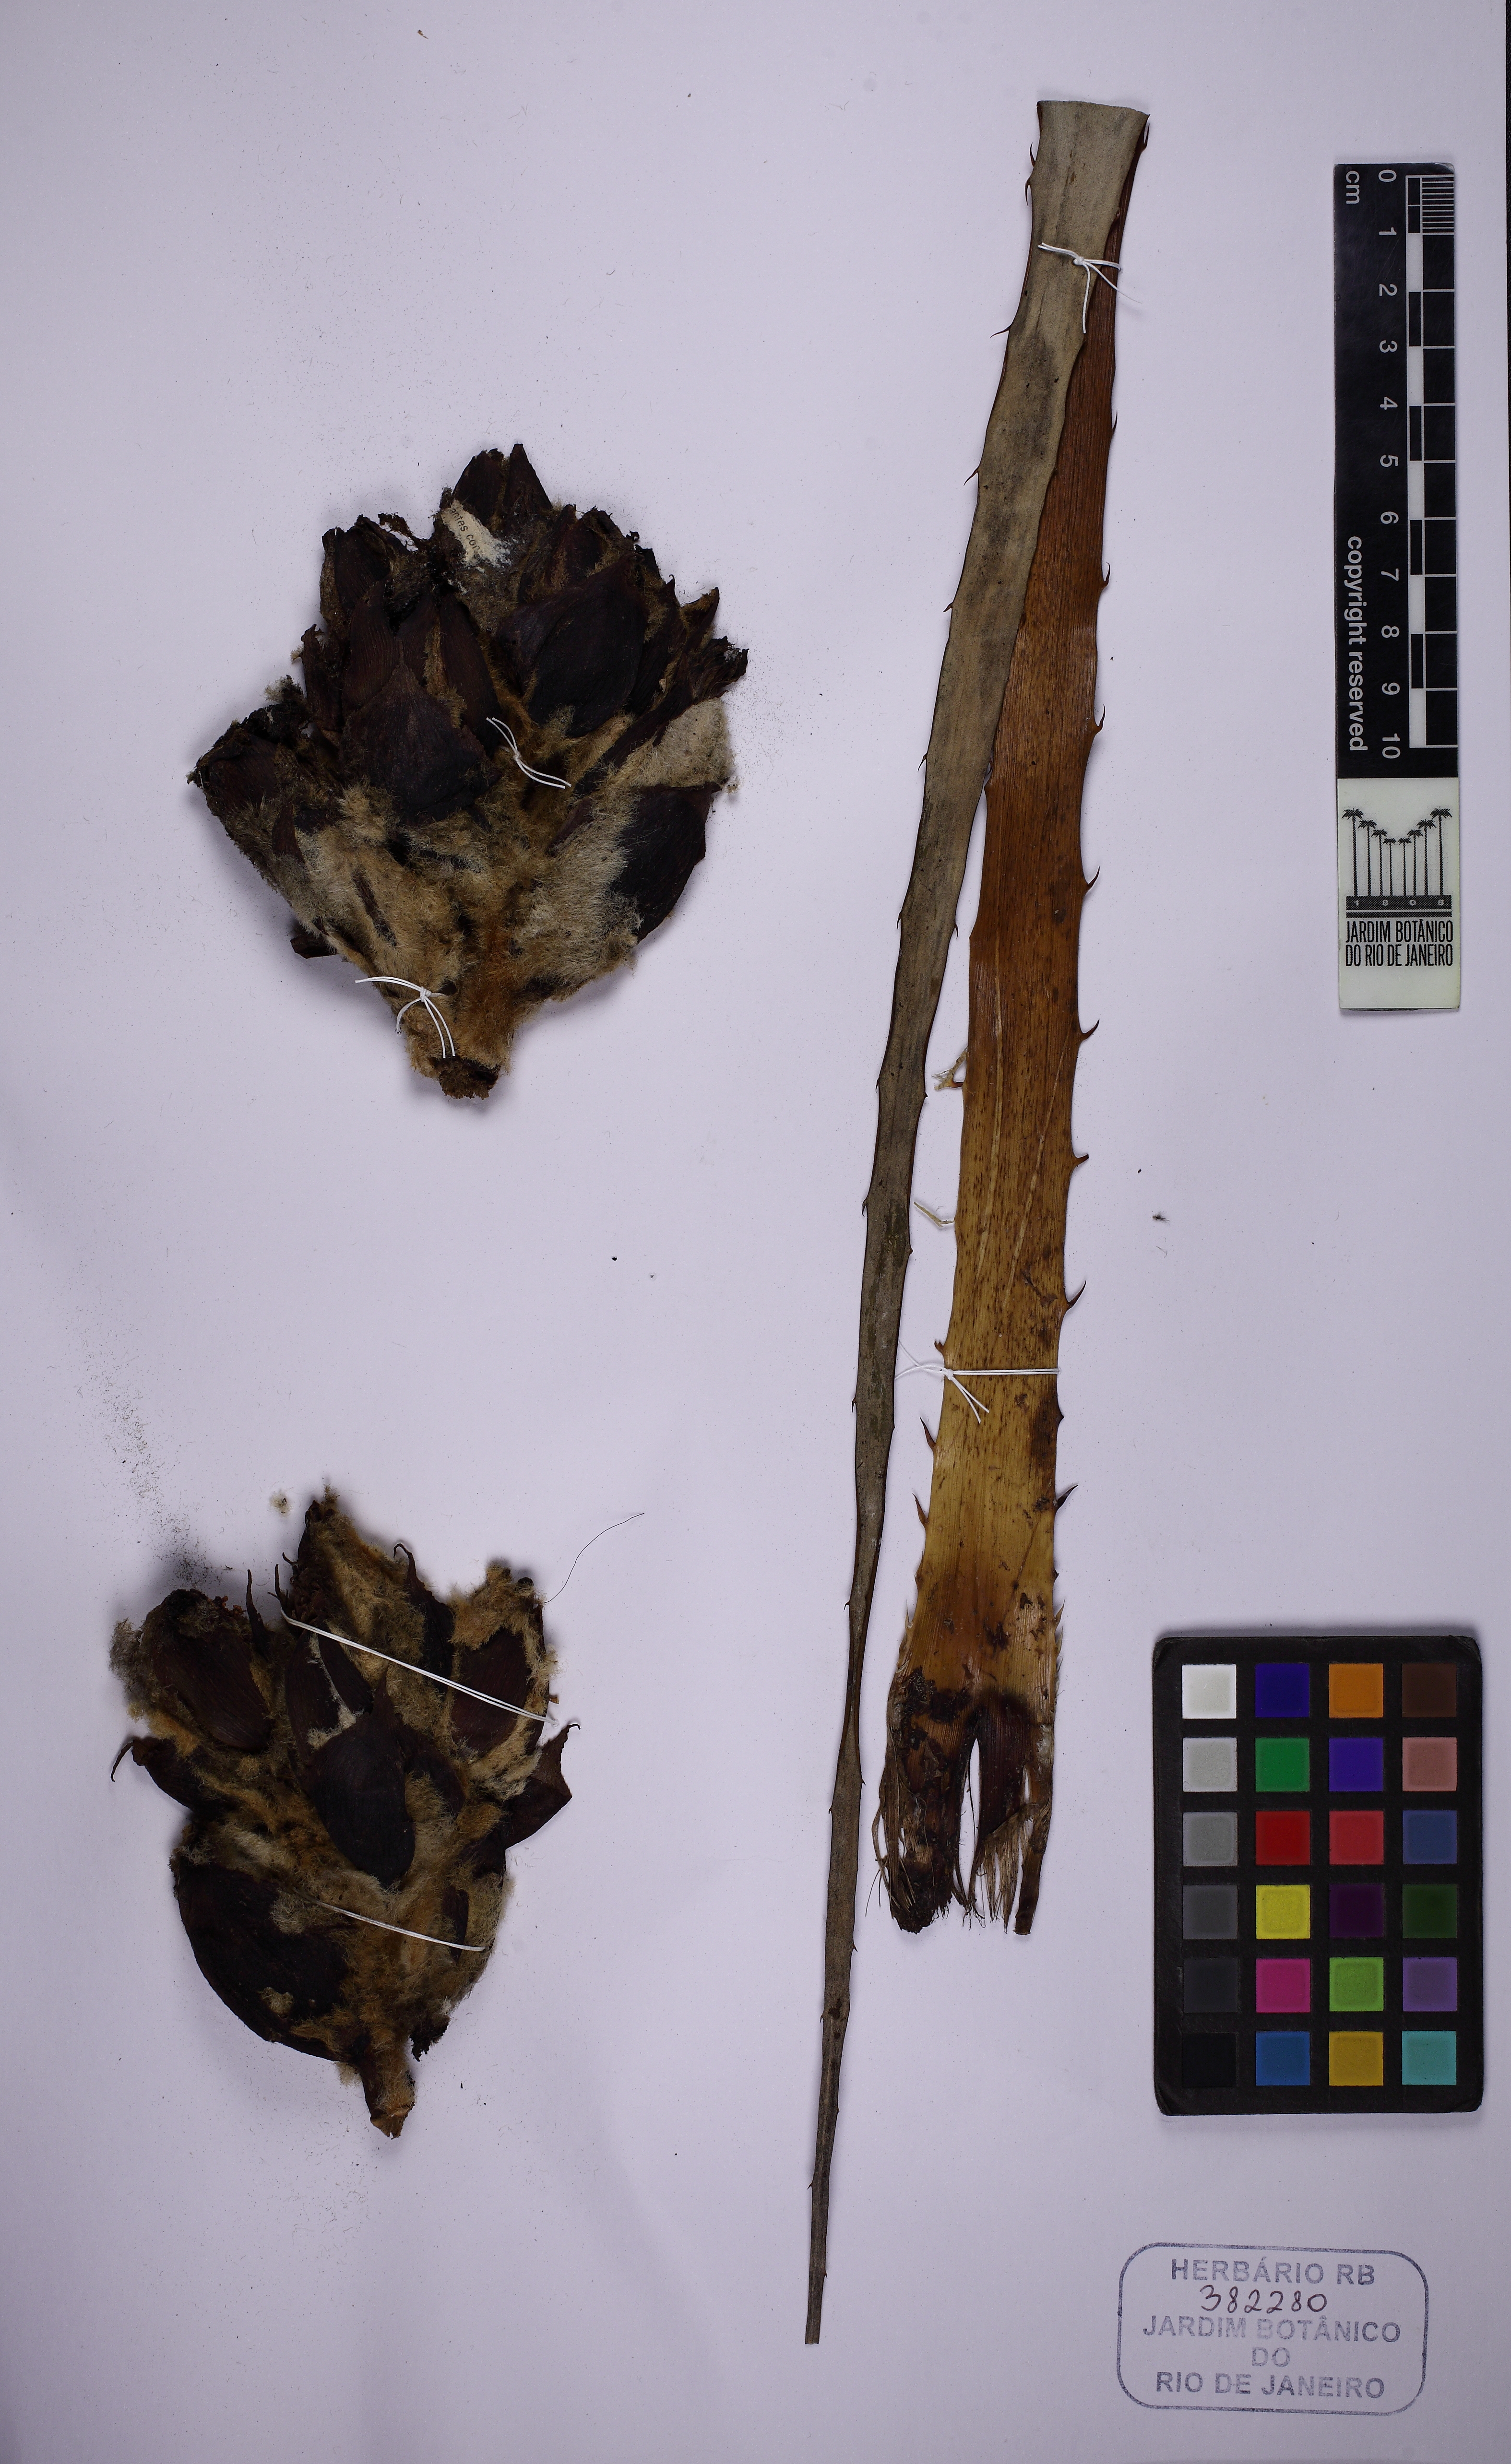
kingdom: Plantae
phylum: Tracheophyta
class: Liliopsida
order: Poales
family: Bromeliaceae
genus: Puya
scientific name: Puya herzogii
